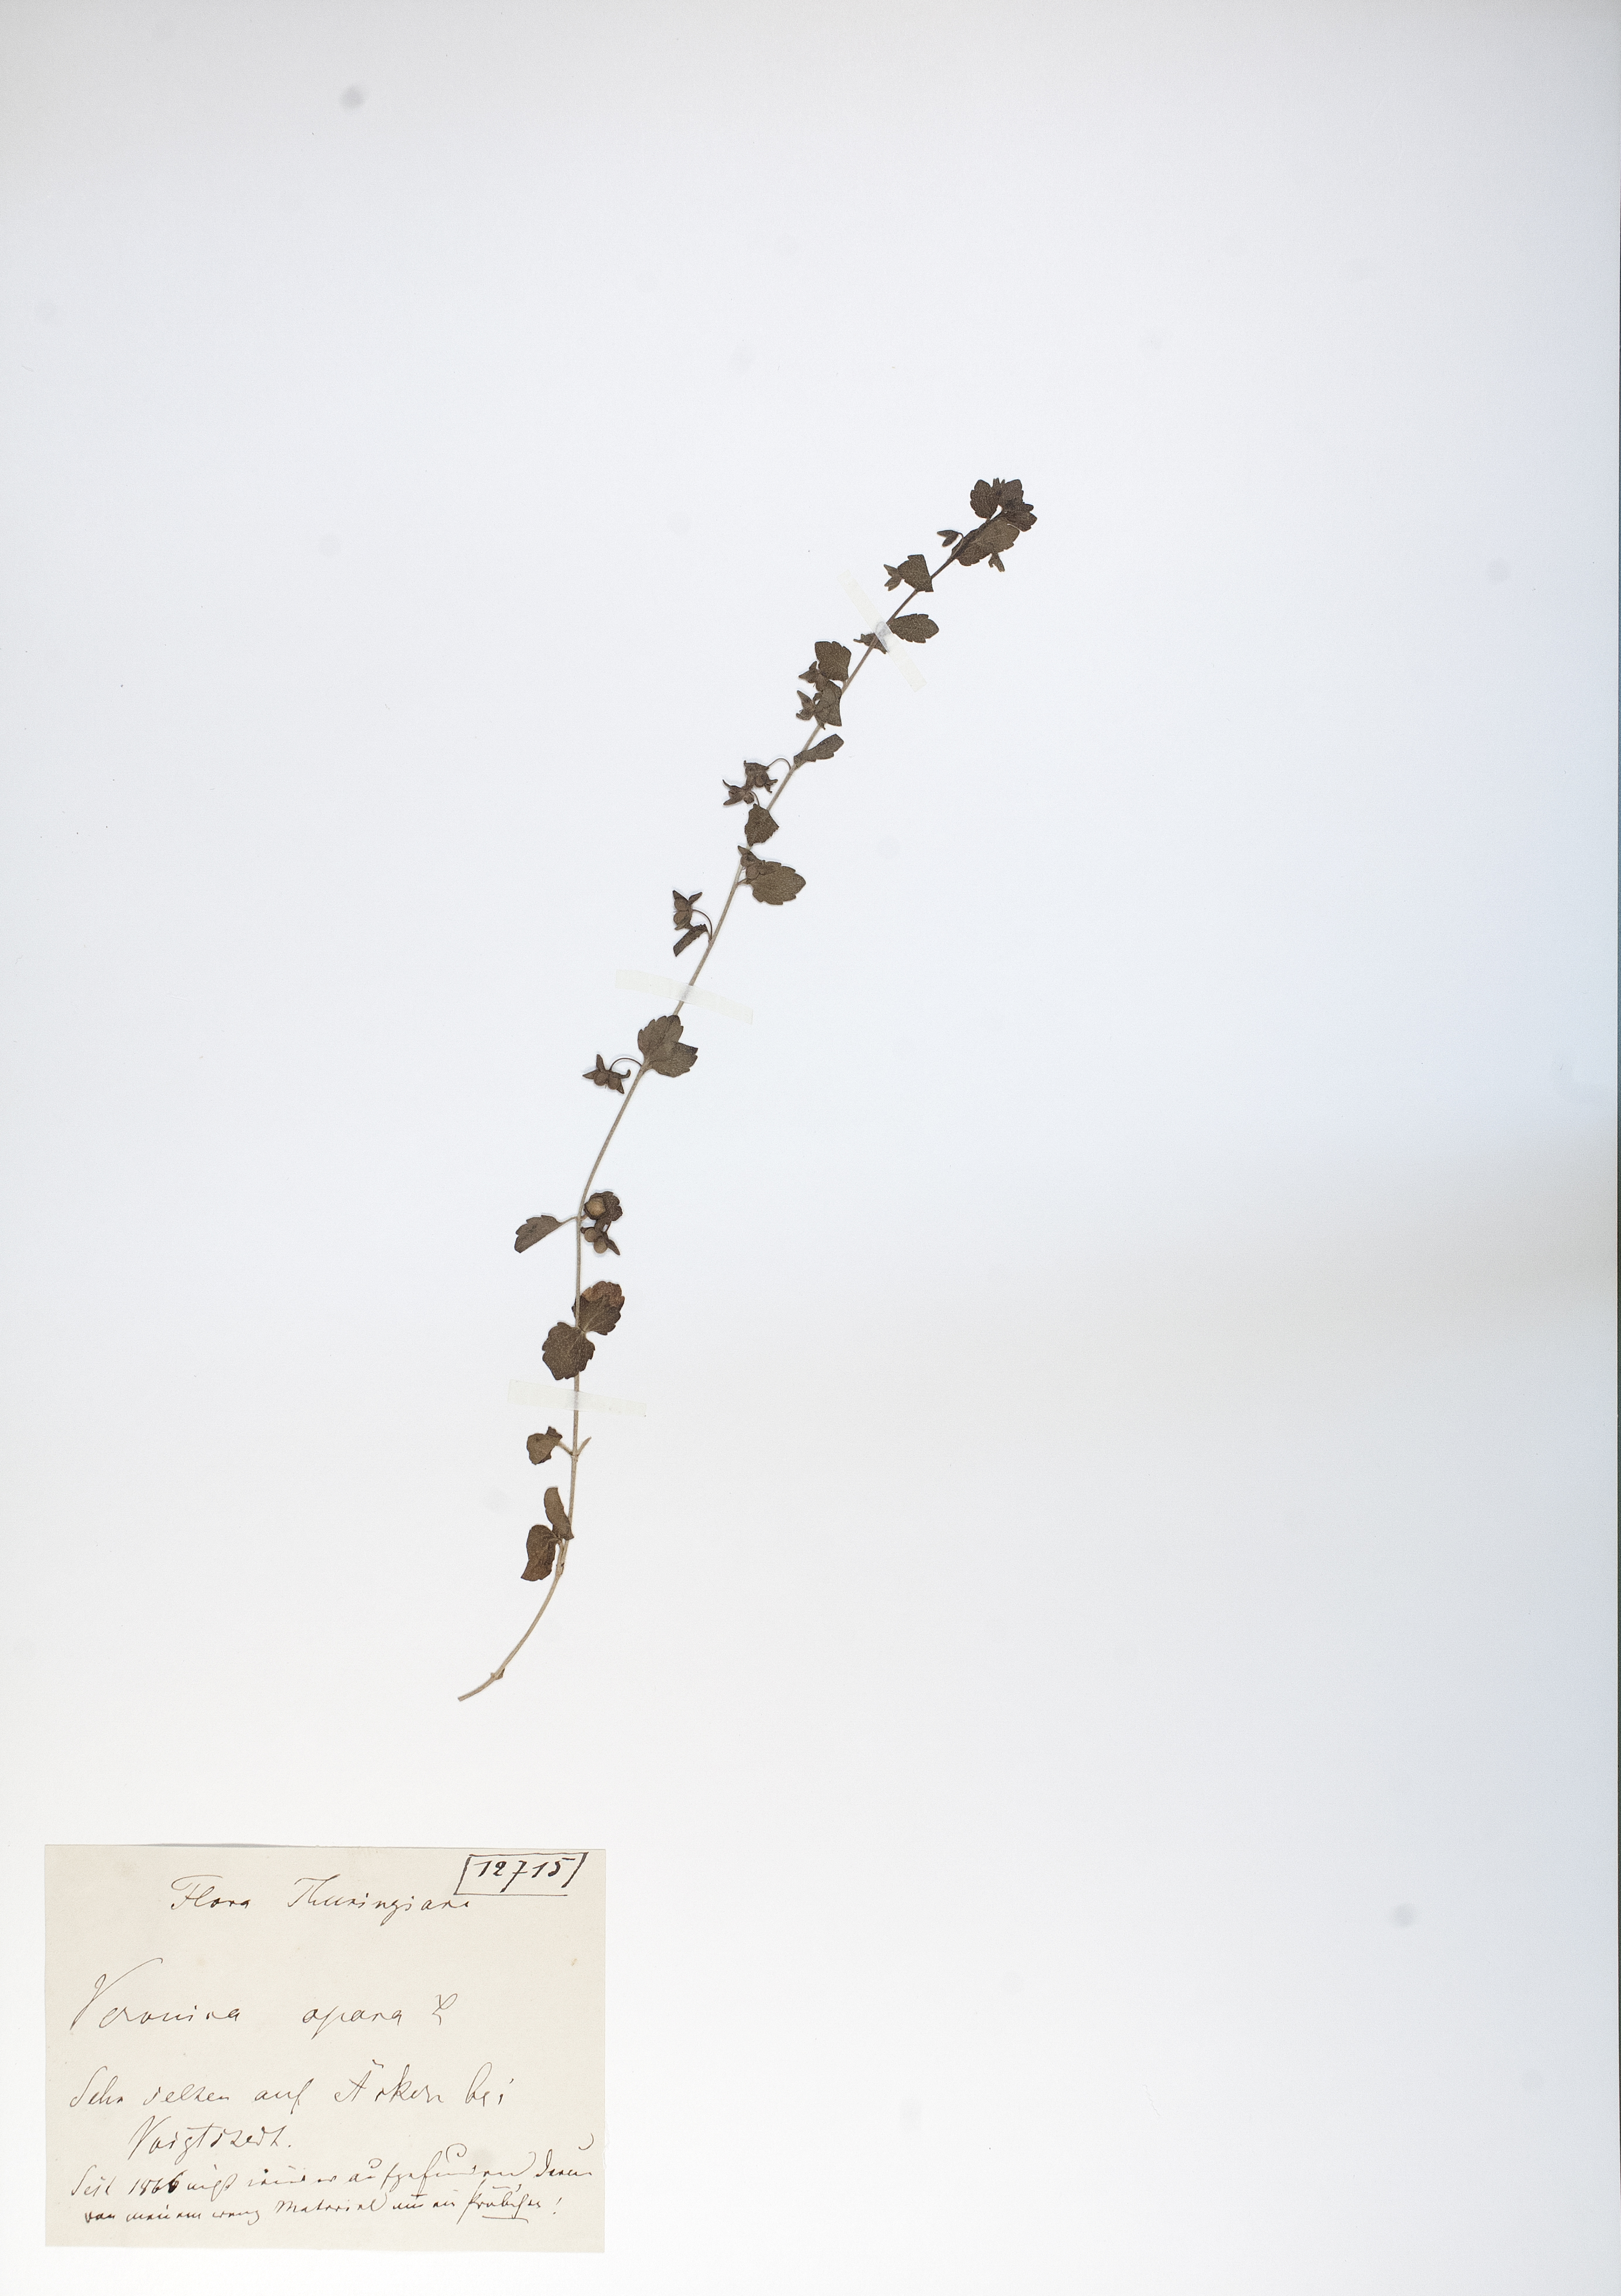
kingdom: Plantae
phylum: Tracheophyta
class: Magnoliopsida
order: Lamiales
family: Plantaginaceae
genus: Veronica
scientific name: Veronica opaca
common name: Dark speedwell
